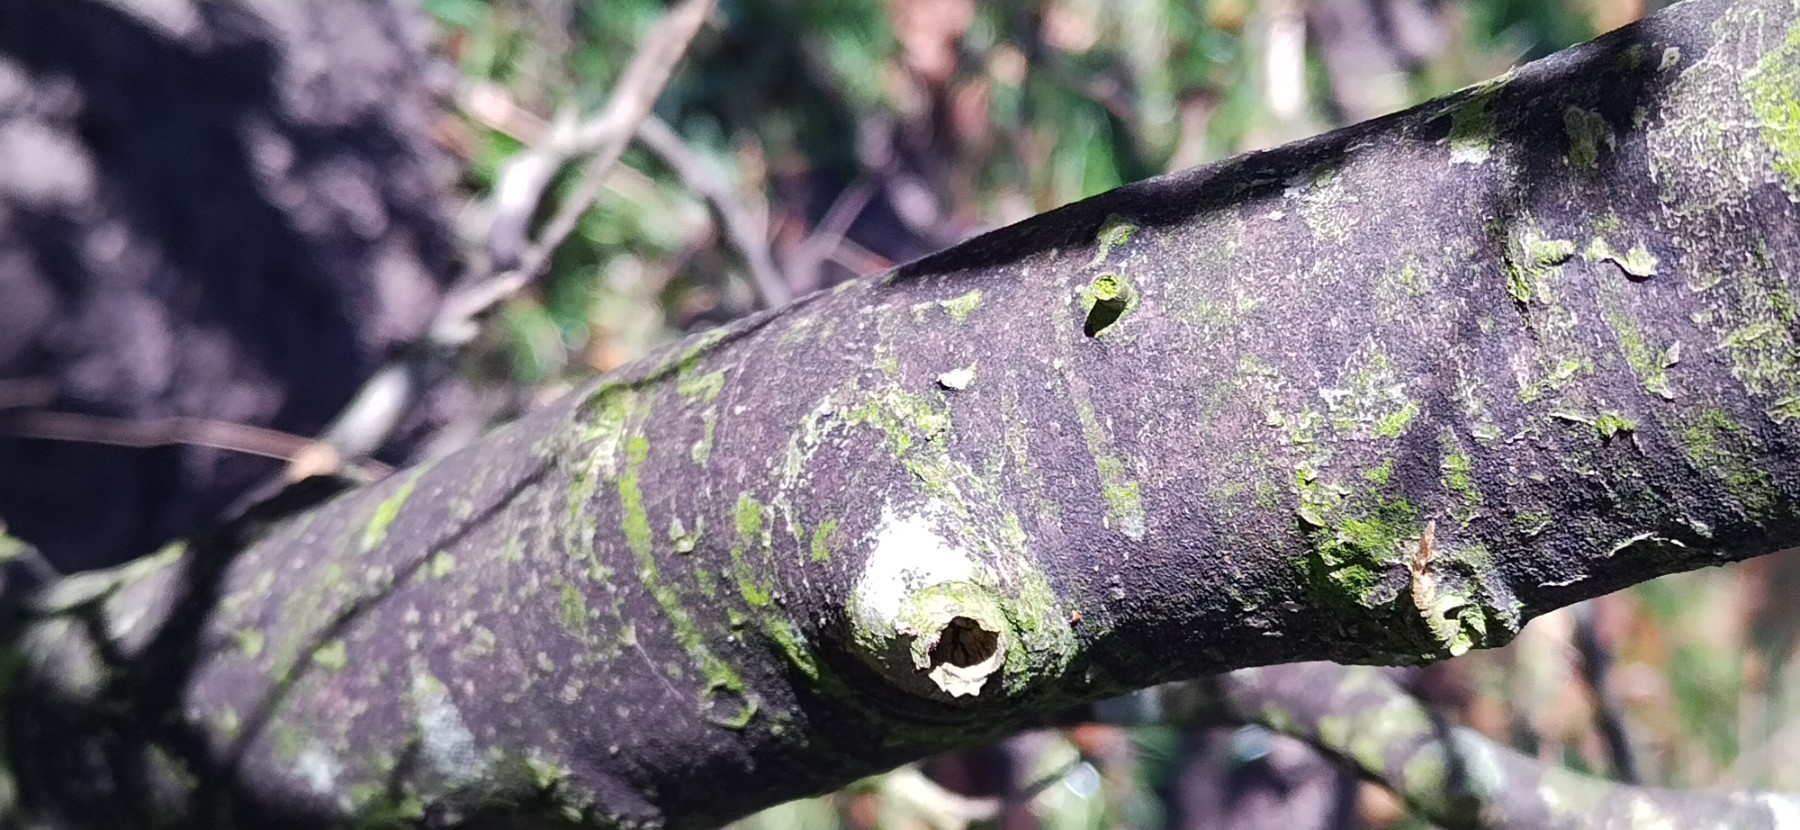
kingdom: Fungi
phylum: Ascomycota
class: Leotiomycetes
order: Rhytismatales
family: Ascodichaenaceae
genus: Ascodichaena
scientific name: Ascodichaena rugosa
